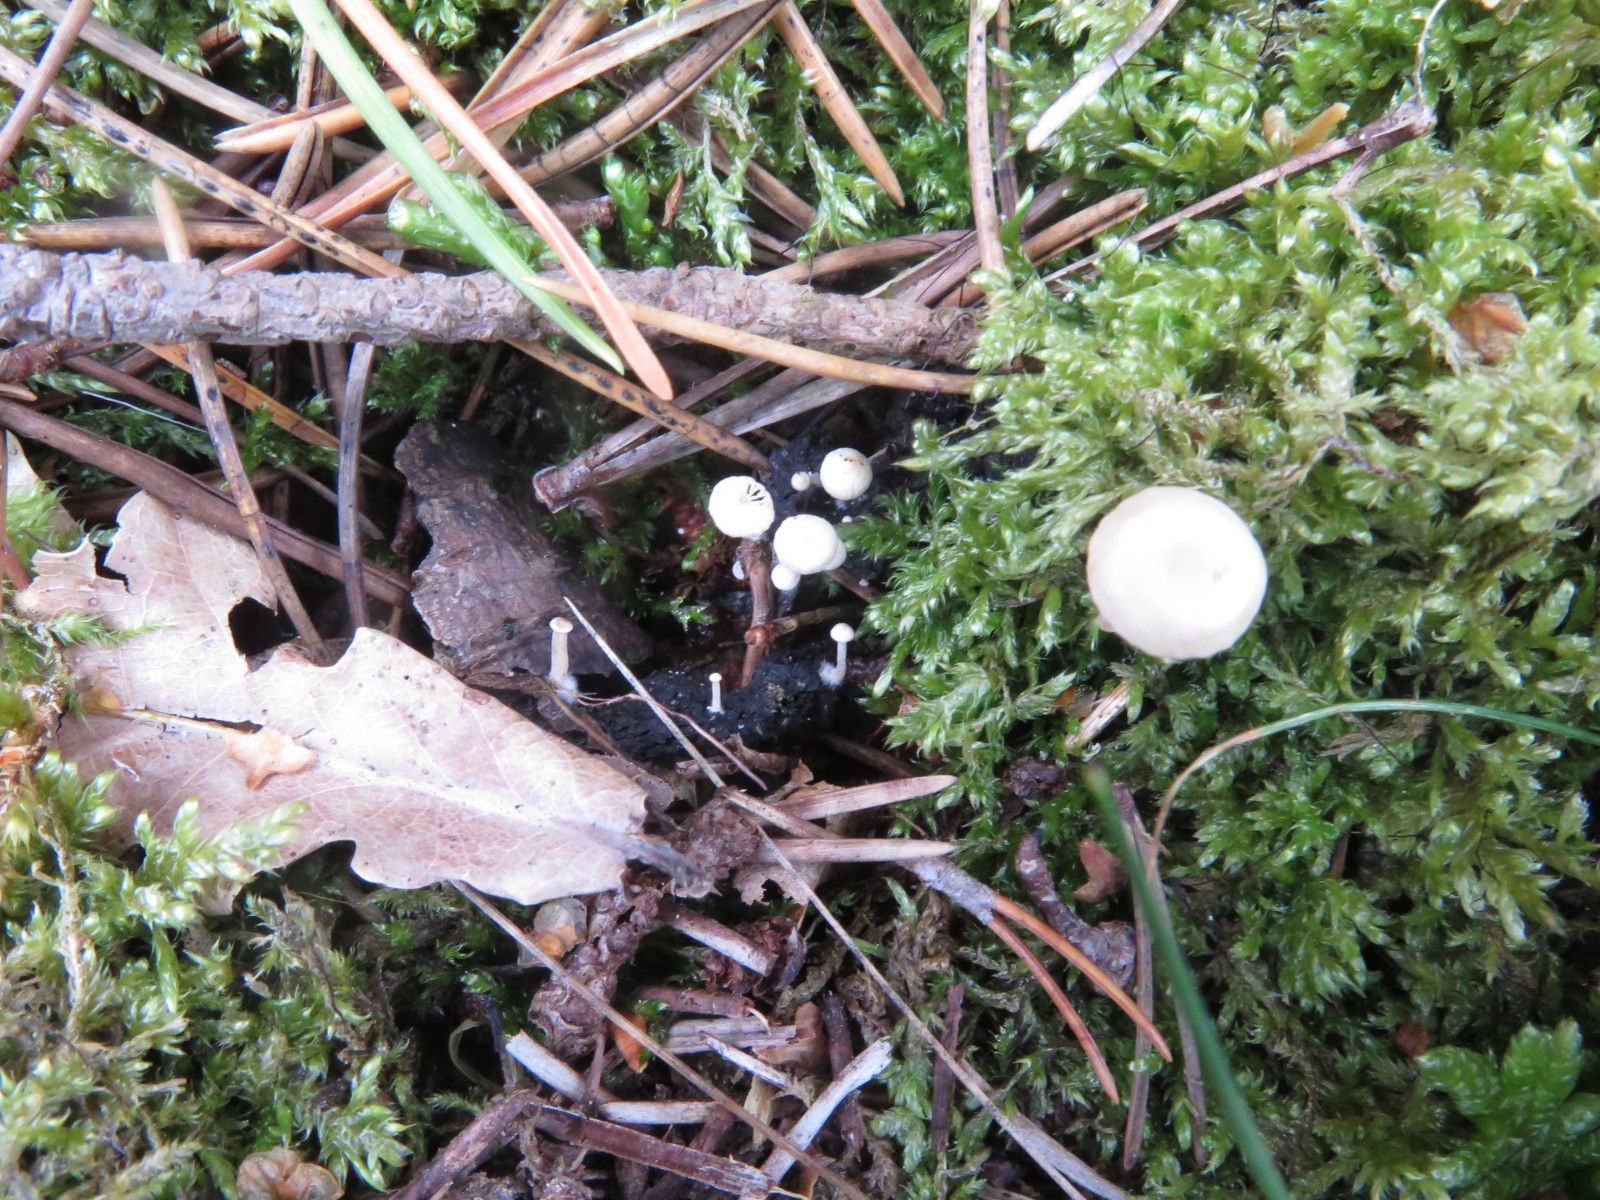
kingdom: Fungi
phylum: Basidiomycota
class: Agaricomycetes
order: Agaricales
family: Tricholomataceae
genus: Collybia
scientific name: Collybia cirrhata
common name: silke-lighat
